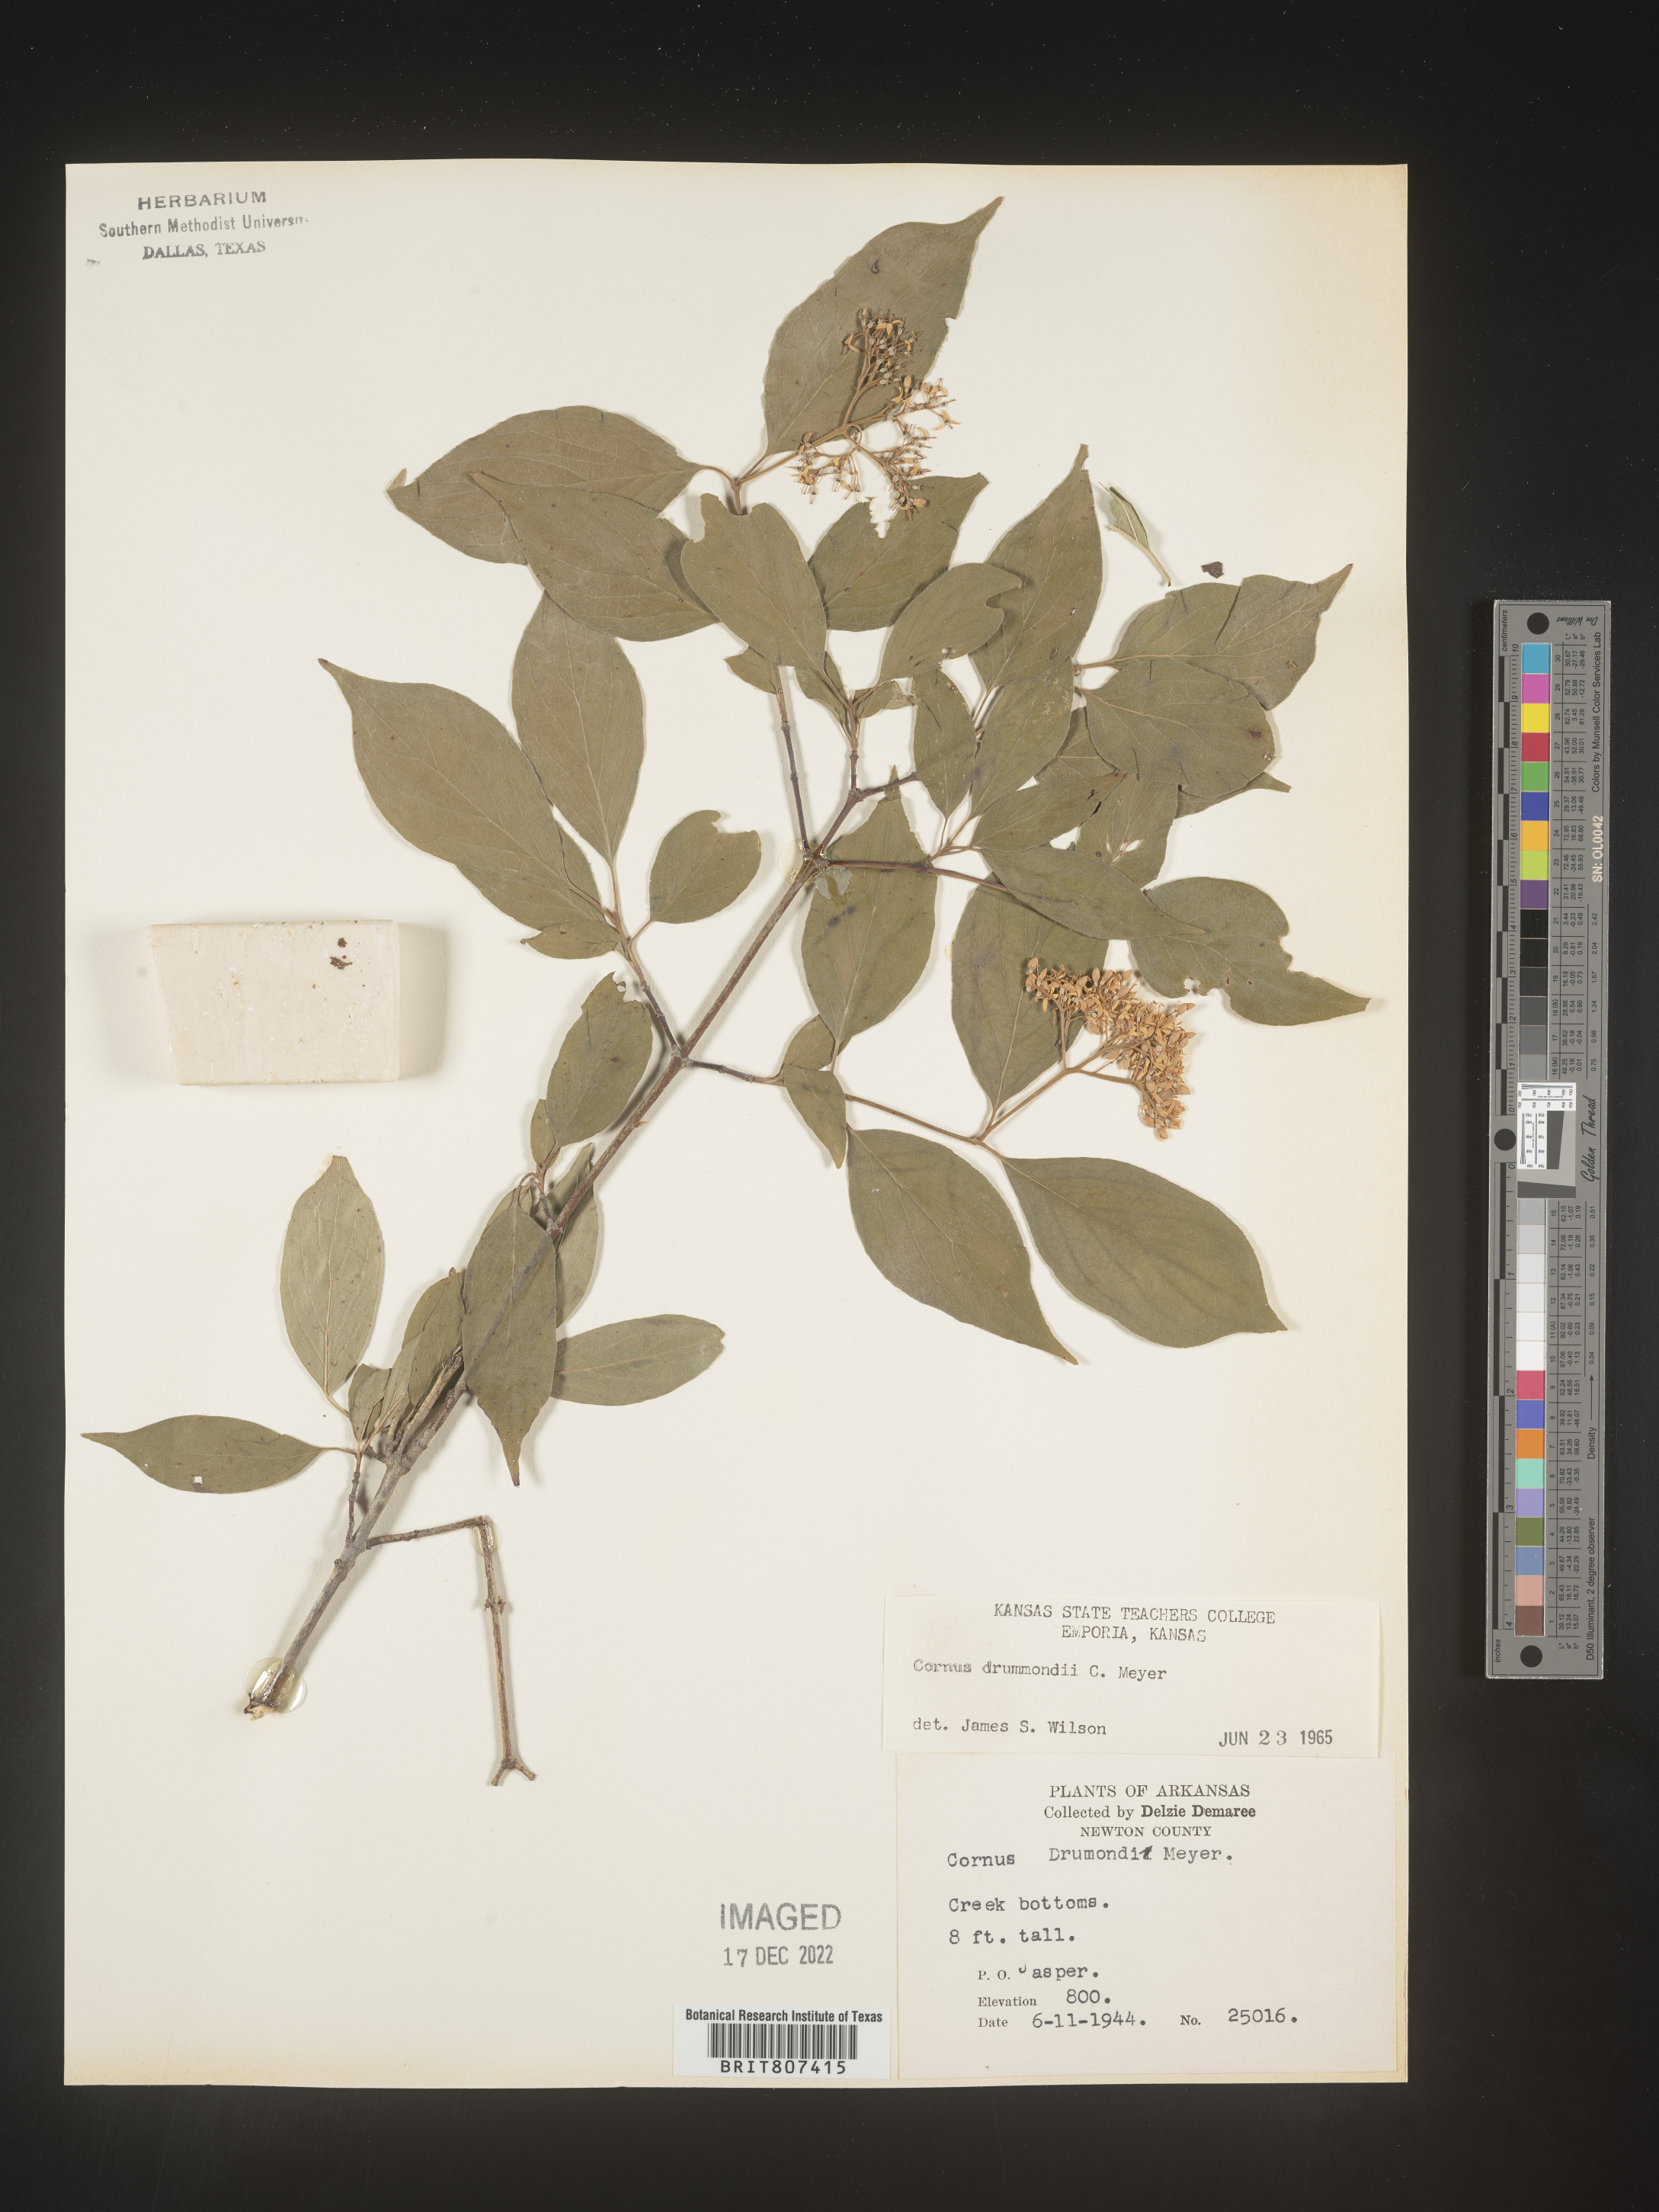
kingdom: Plantae
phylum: Tracheophyta
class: Magnoliopsida
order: Cornales
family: Cornaceae
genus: Cornus
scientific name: Cornus drummondii
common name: Rough-leaf dogwood
